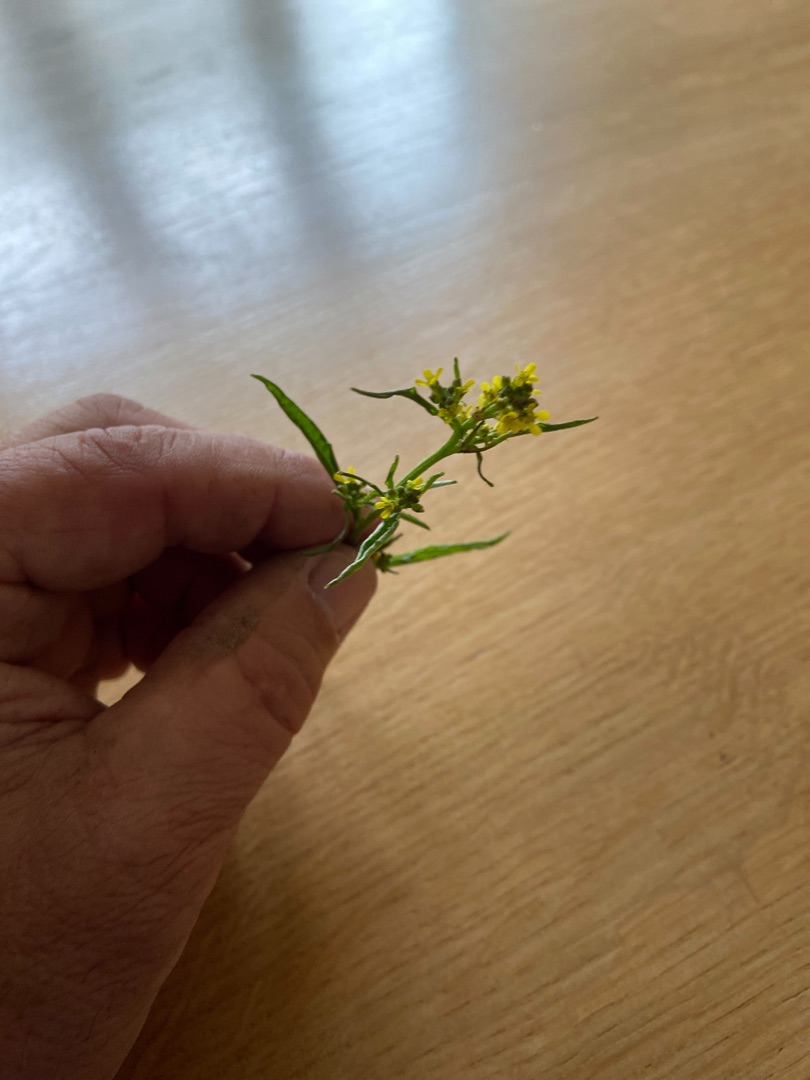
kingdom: Plantae
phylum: Tracheophyta
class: Magnoliopsida
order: Brassicales
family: Brassicaceae
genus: Sisymbrium
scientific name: Sisymbrium officinale
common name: Rank vejsennep
